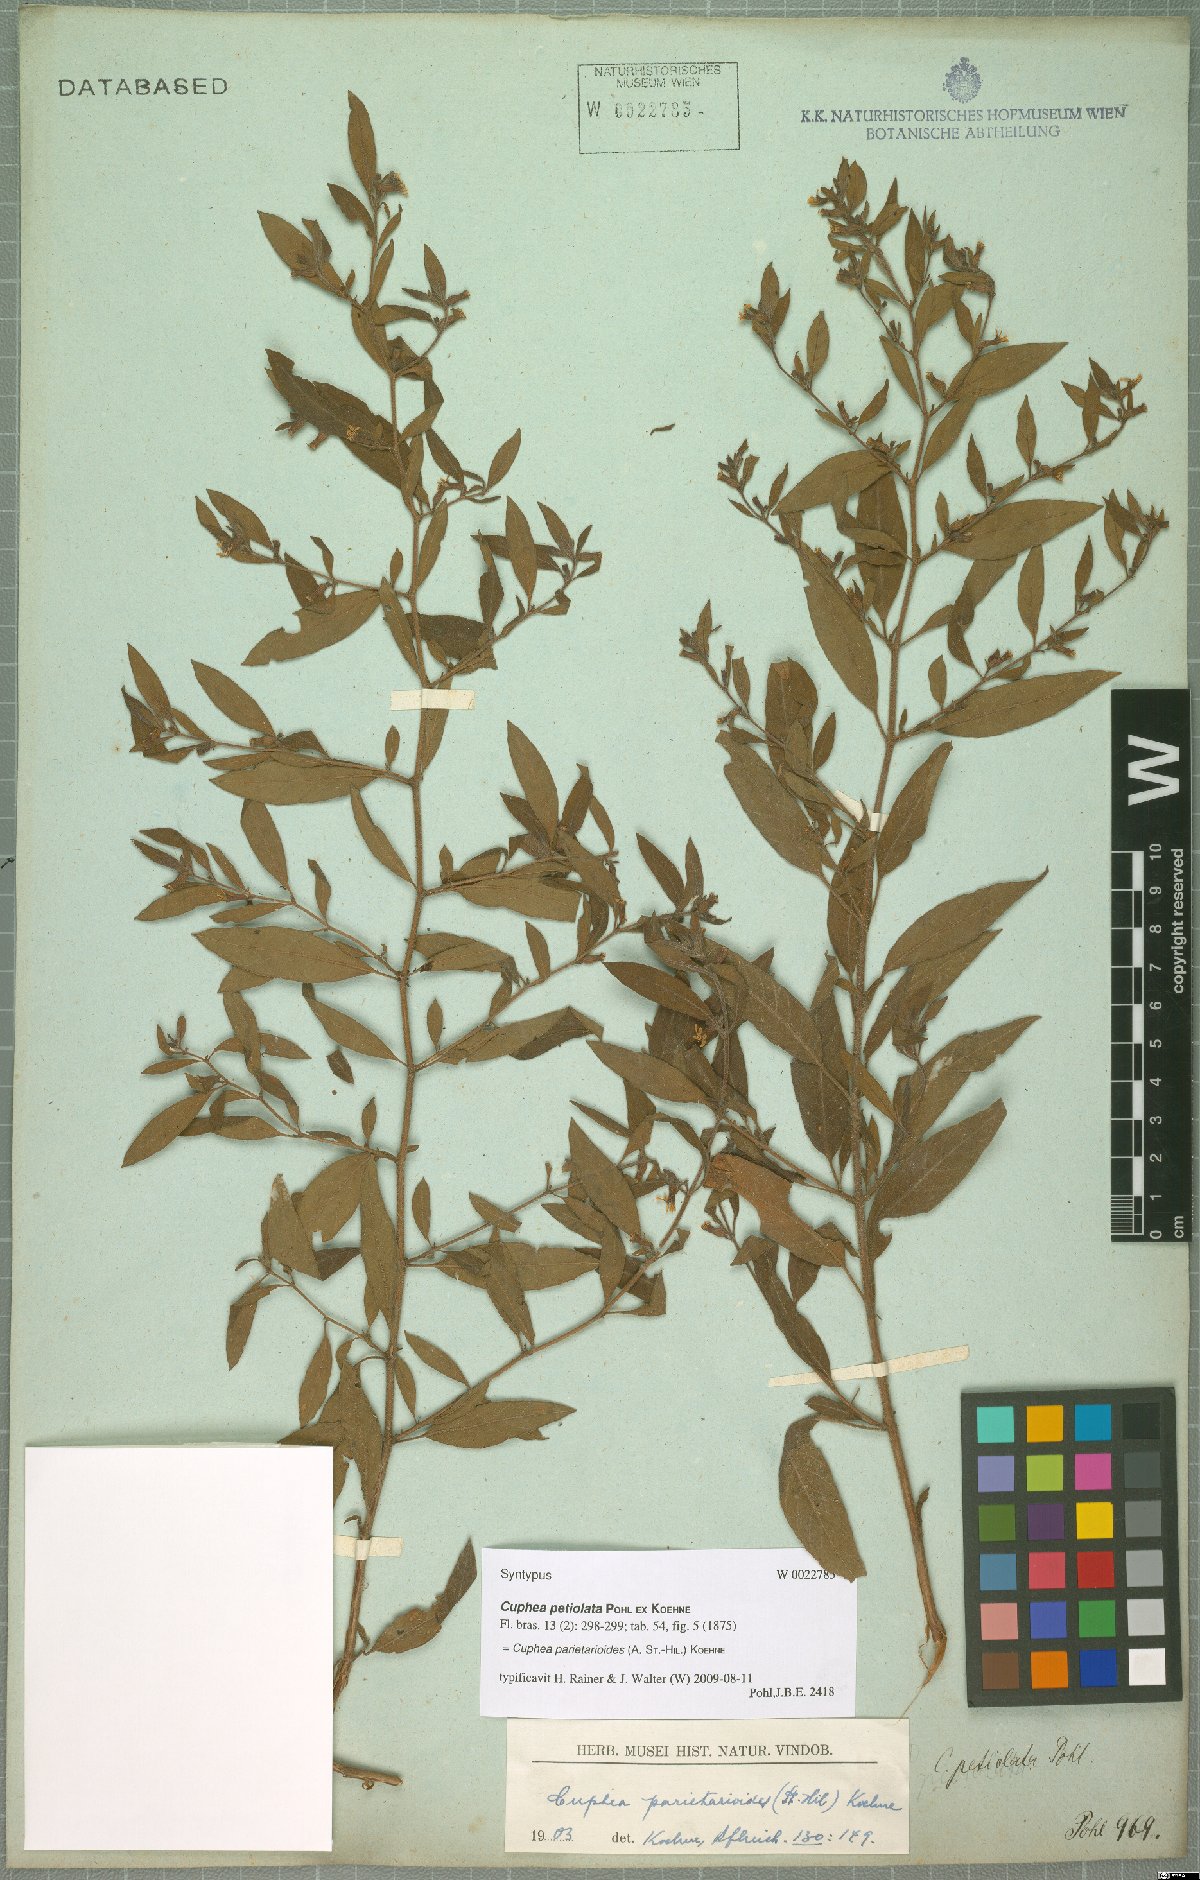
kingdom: Plantae
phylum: Tracheophyta
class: Magnoliopsida
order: Myrtales
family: Lythraceae
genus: Cuphea
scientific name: Cuphea
